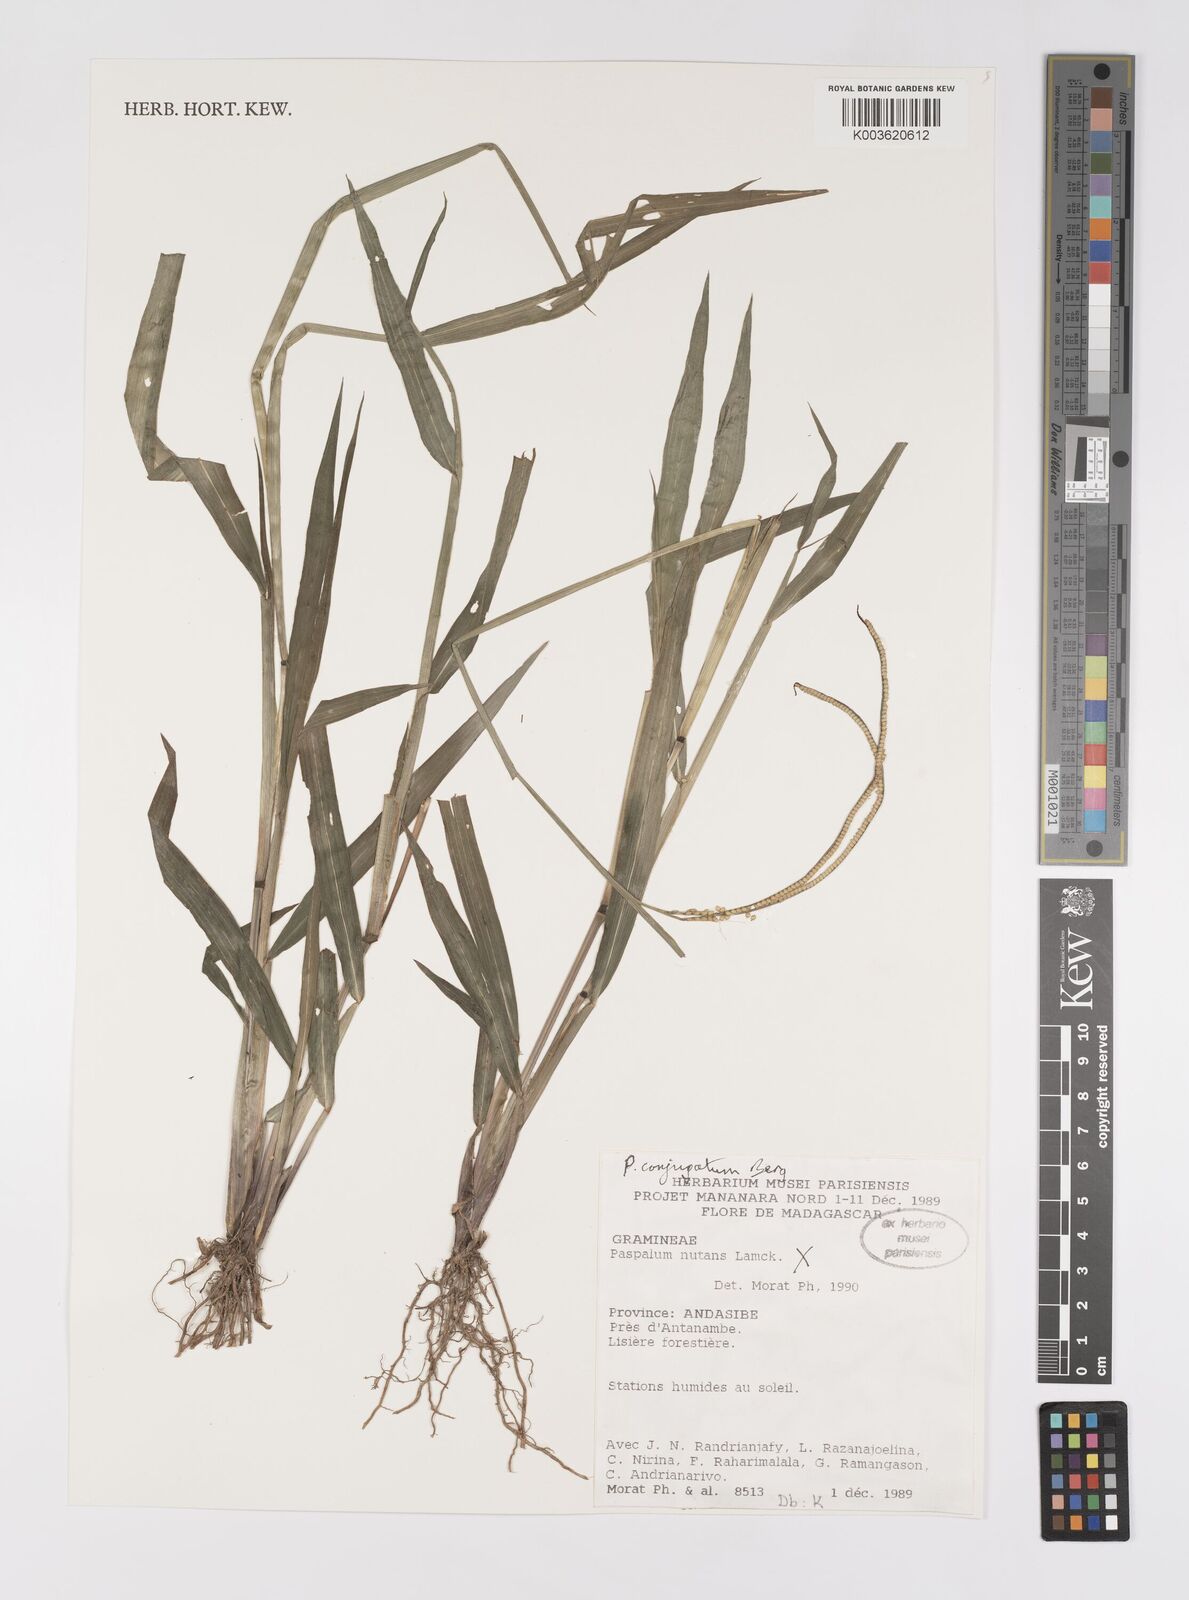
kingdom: Plantae
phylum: Tracheophyta
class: Liliopsida
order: Poales
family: Poaceae
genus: Paspalum
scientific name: Paspalum conjugatum
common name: Hilograss
